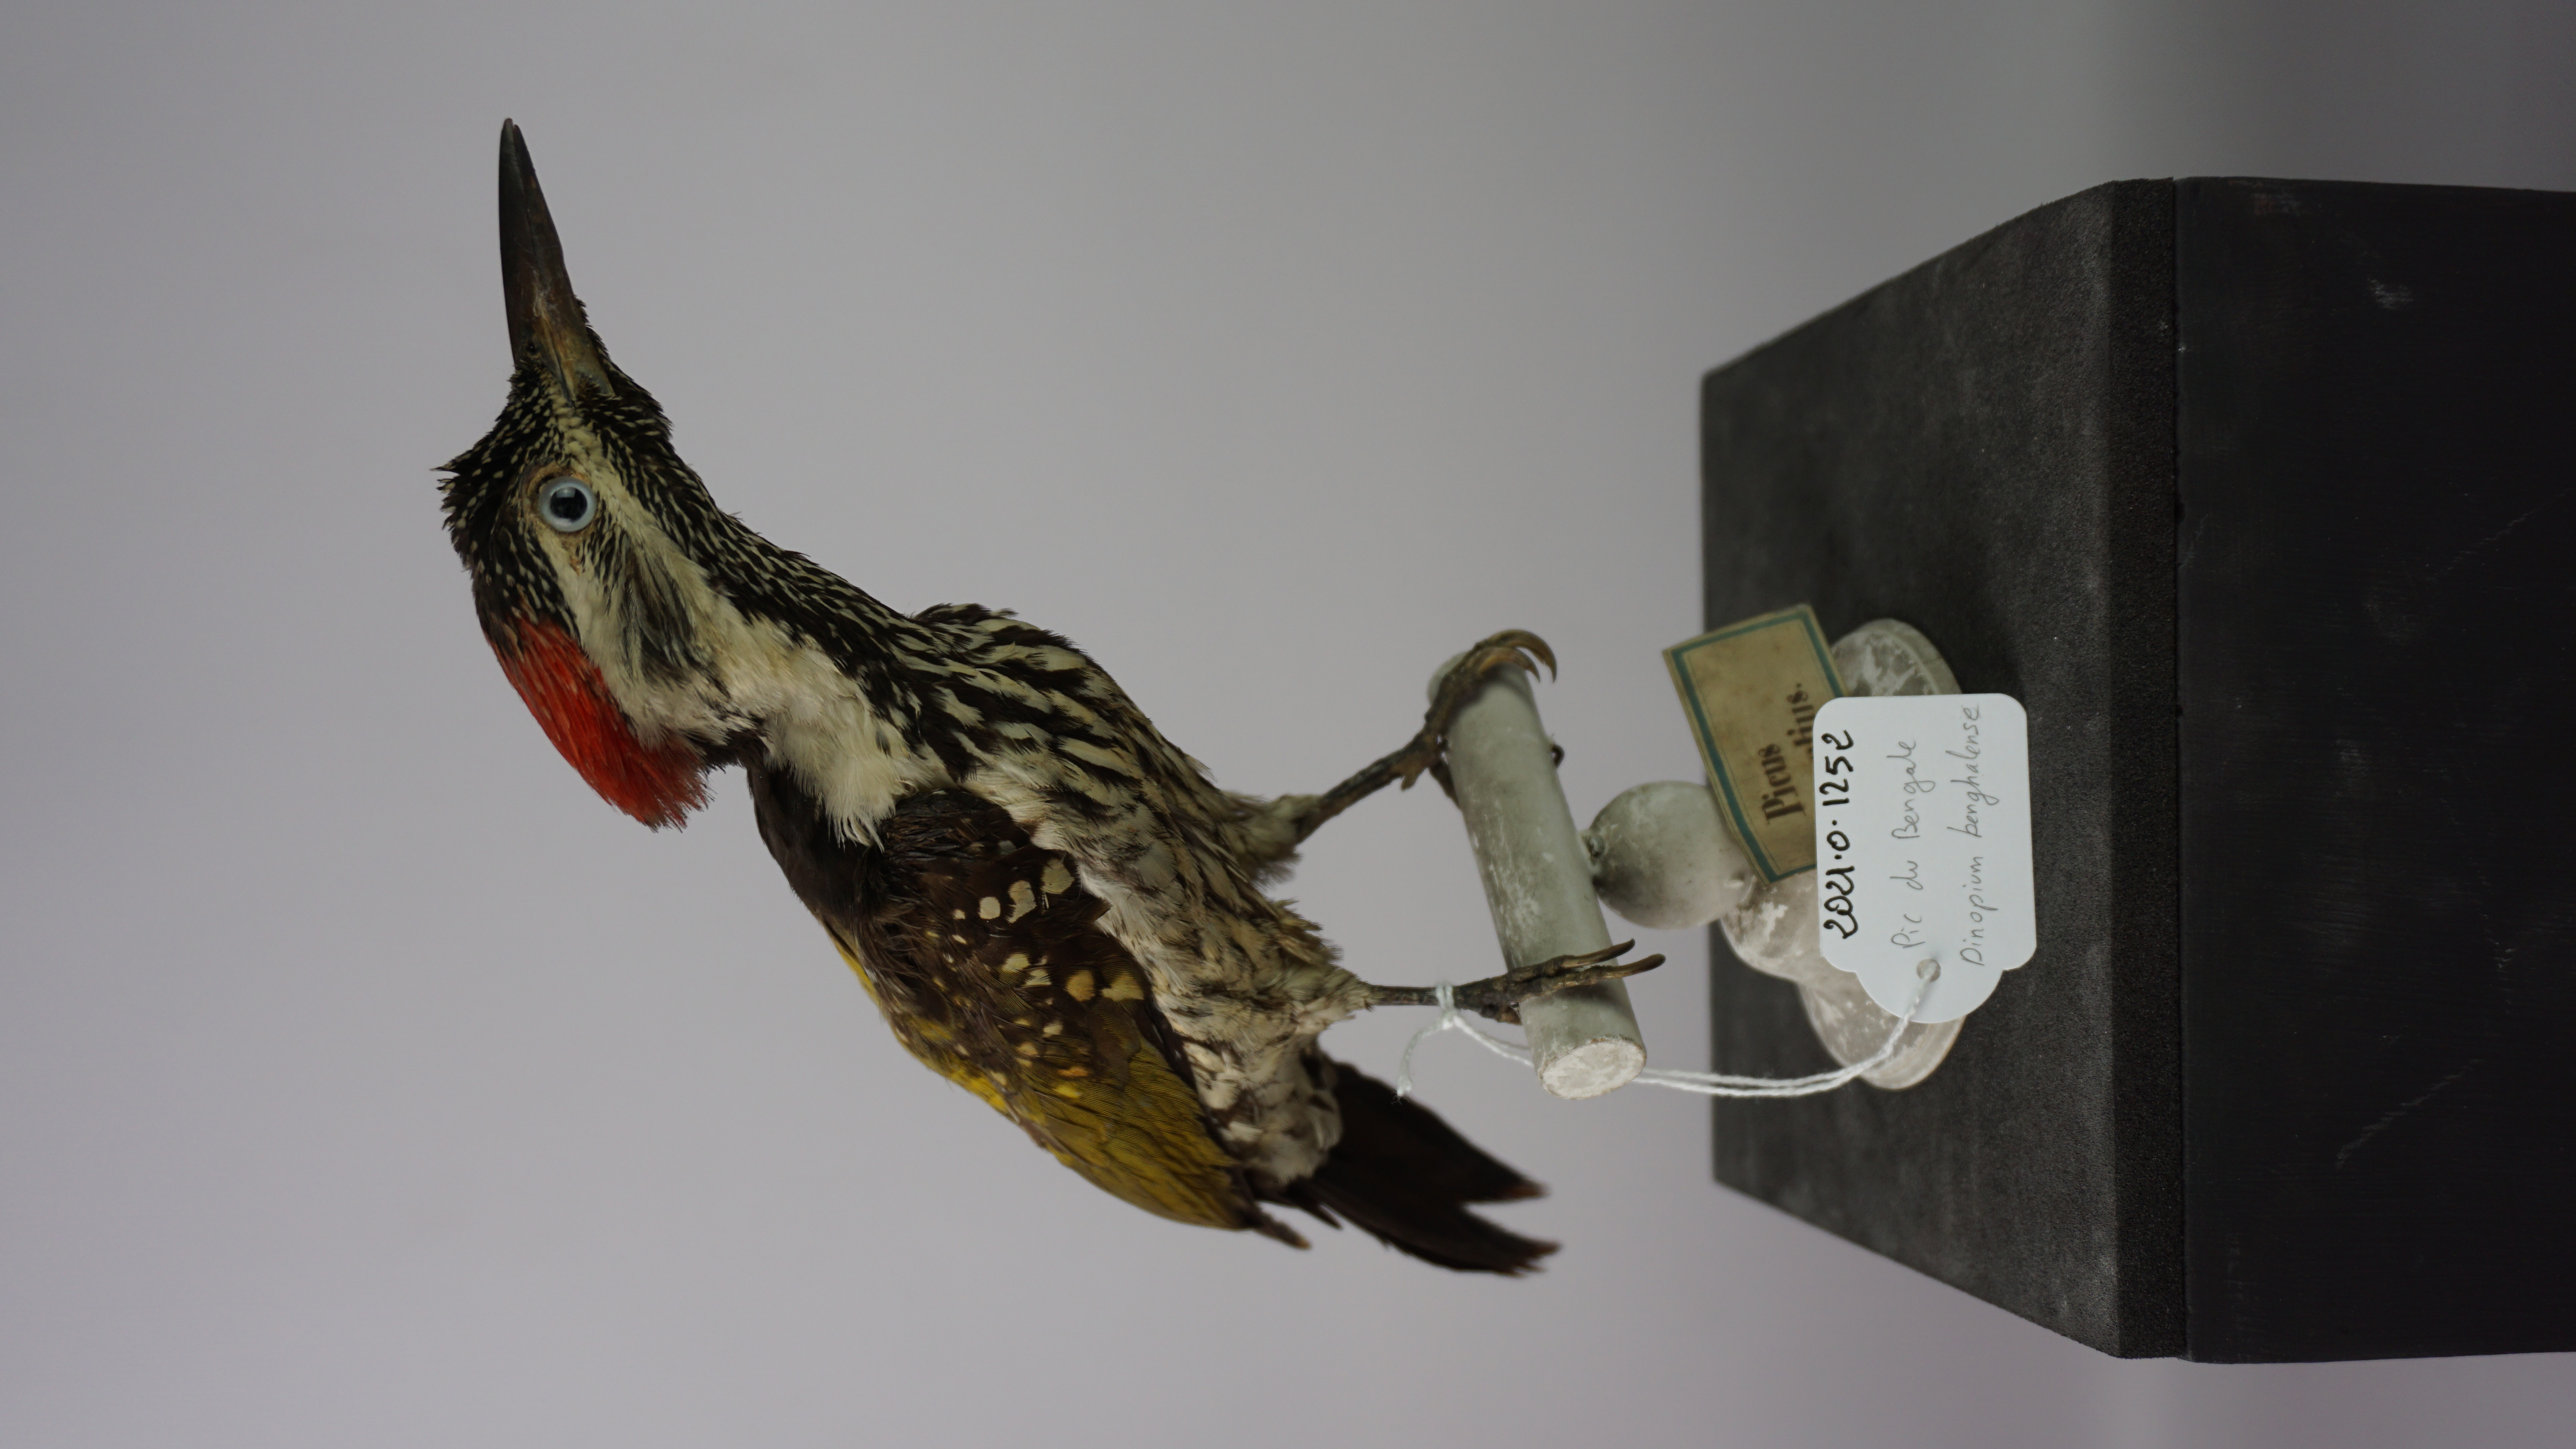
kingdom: Animalia
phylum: Chordata
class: Aves
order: Piciformes
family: Picidae
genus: Dinopium
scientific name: Dinopium benghalense
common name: Black-rumped flameback
